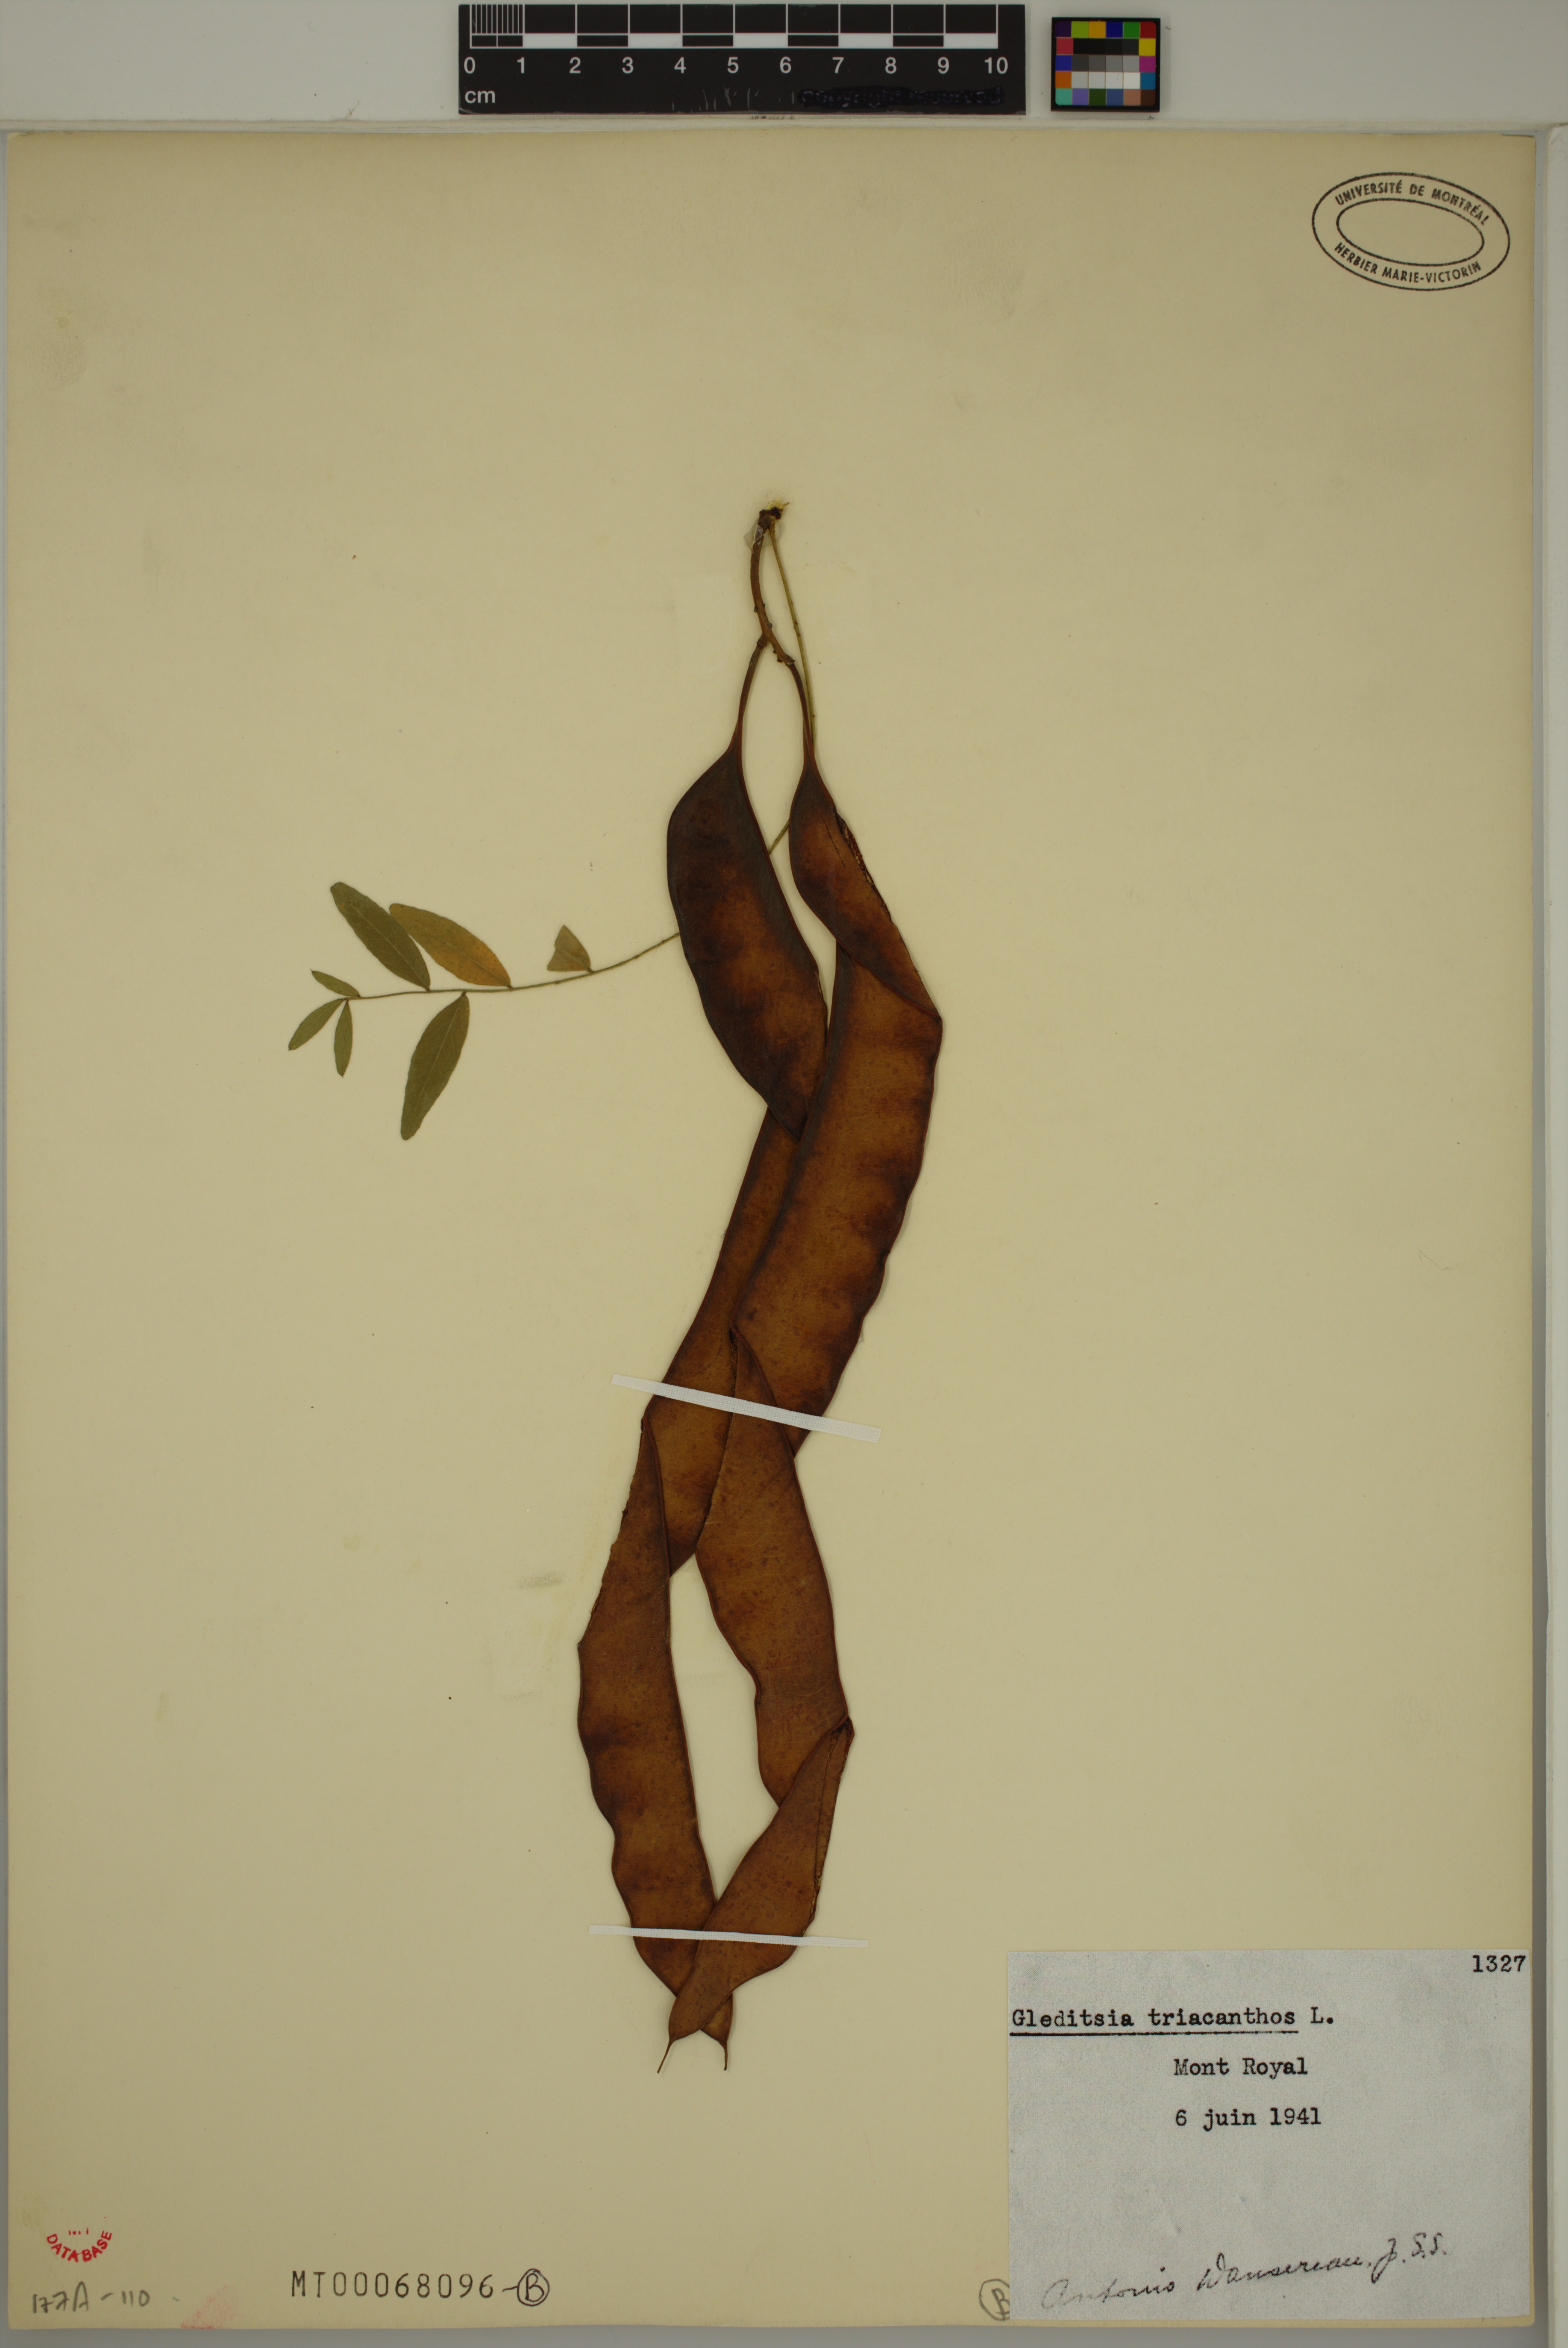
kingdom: Plantae
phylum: Tracheophyta
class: Magnoliopsida
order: Fabales
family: Fabaceae
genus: Gleditsia
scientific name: Gleditsia triacanthos
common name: Common honeylocust
